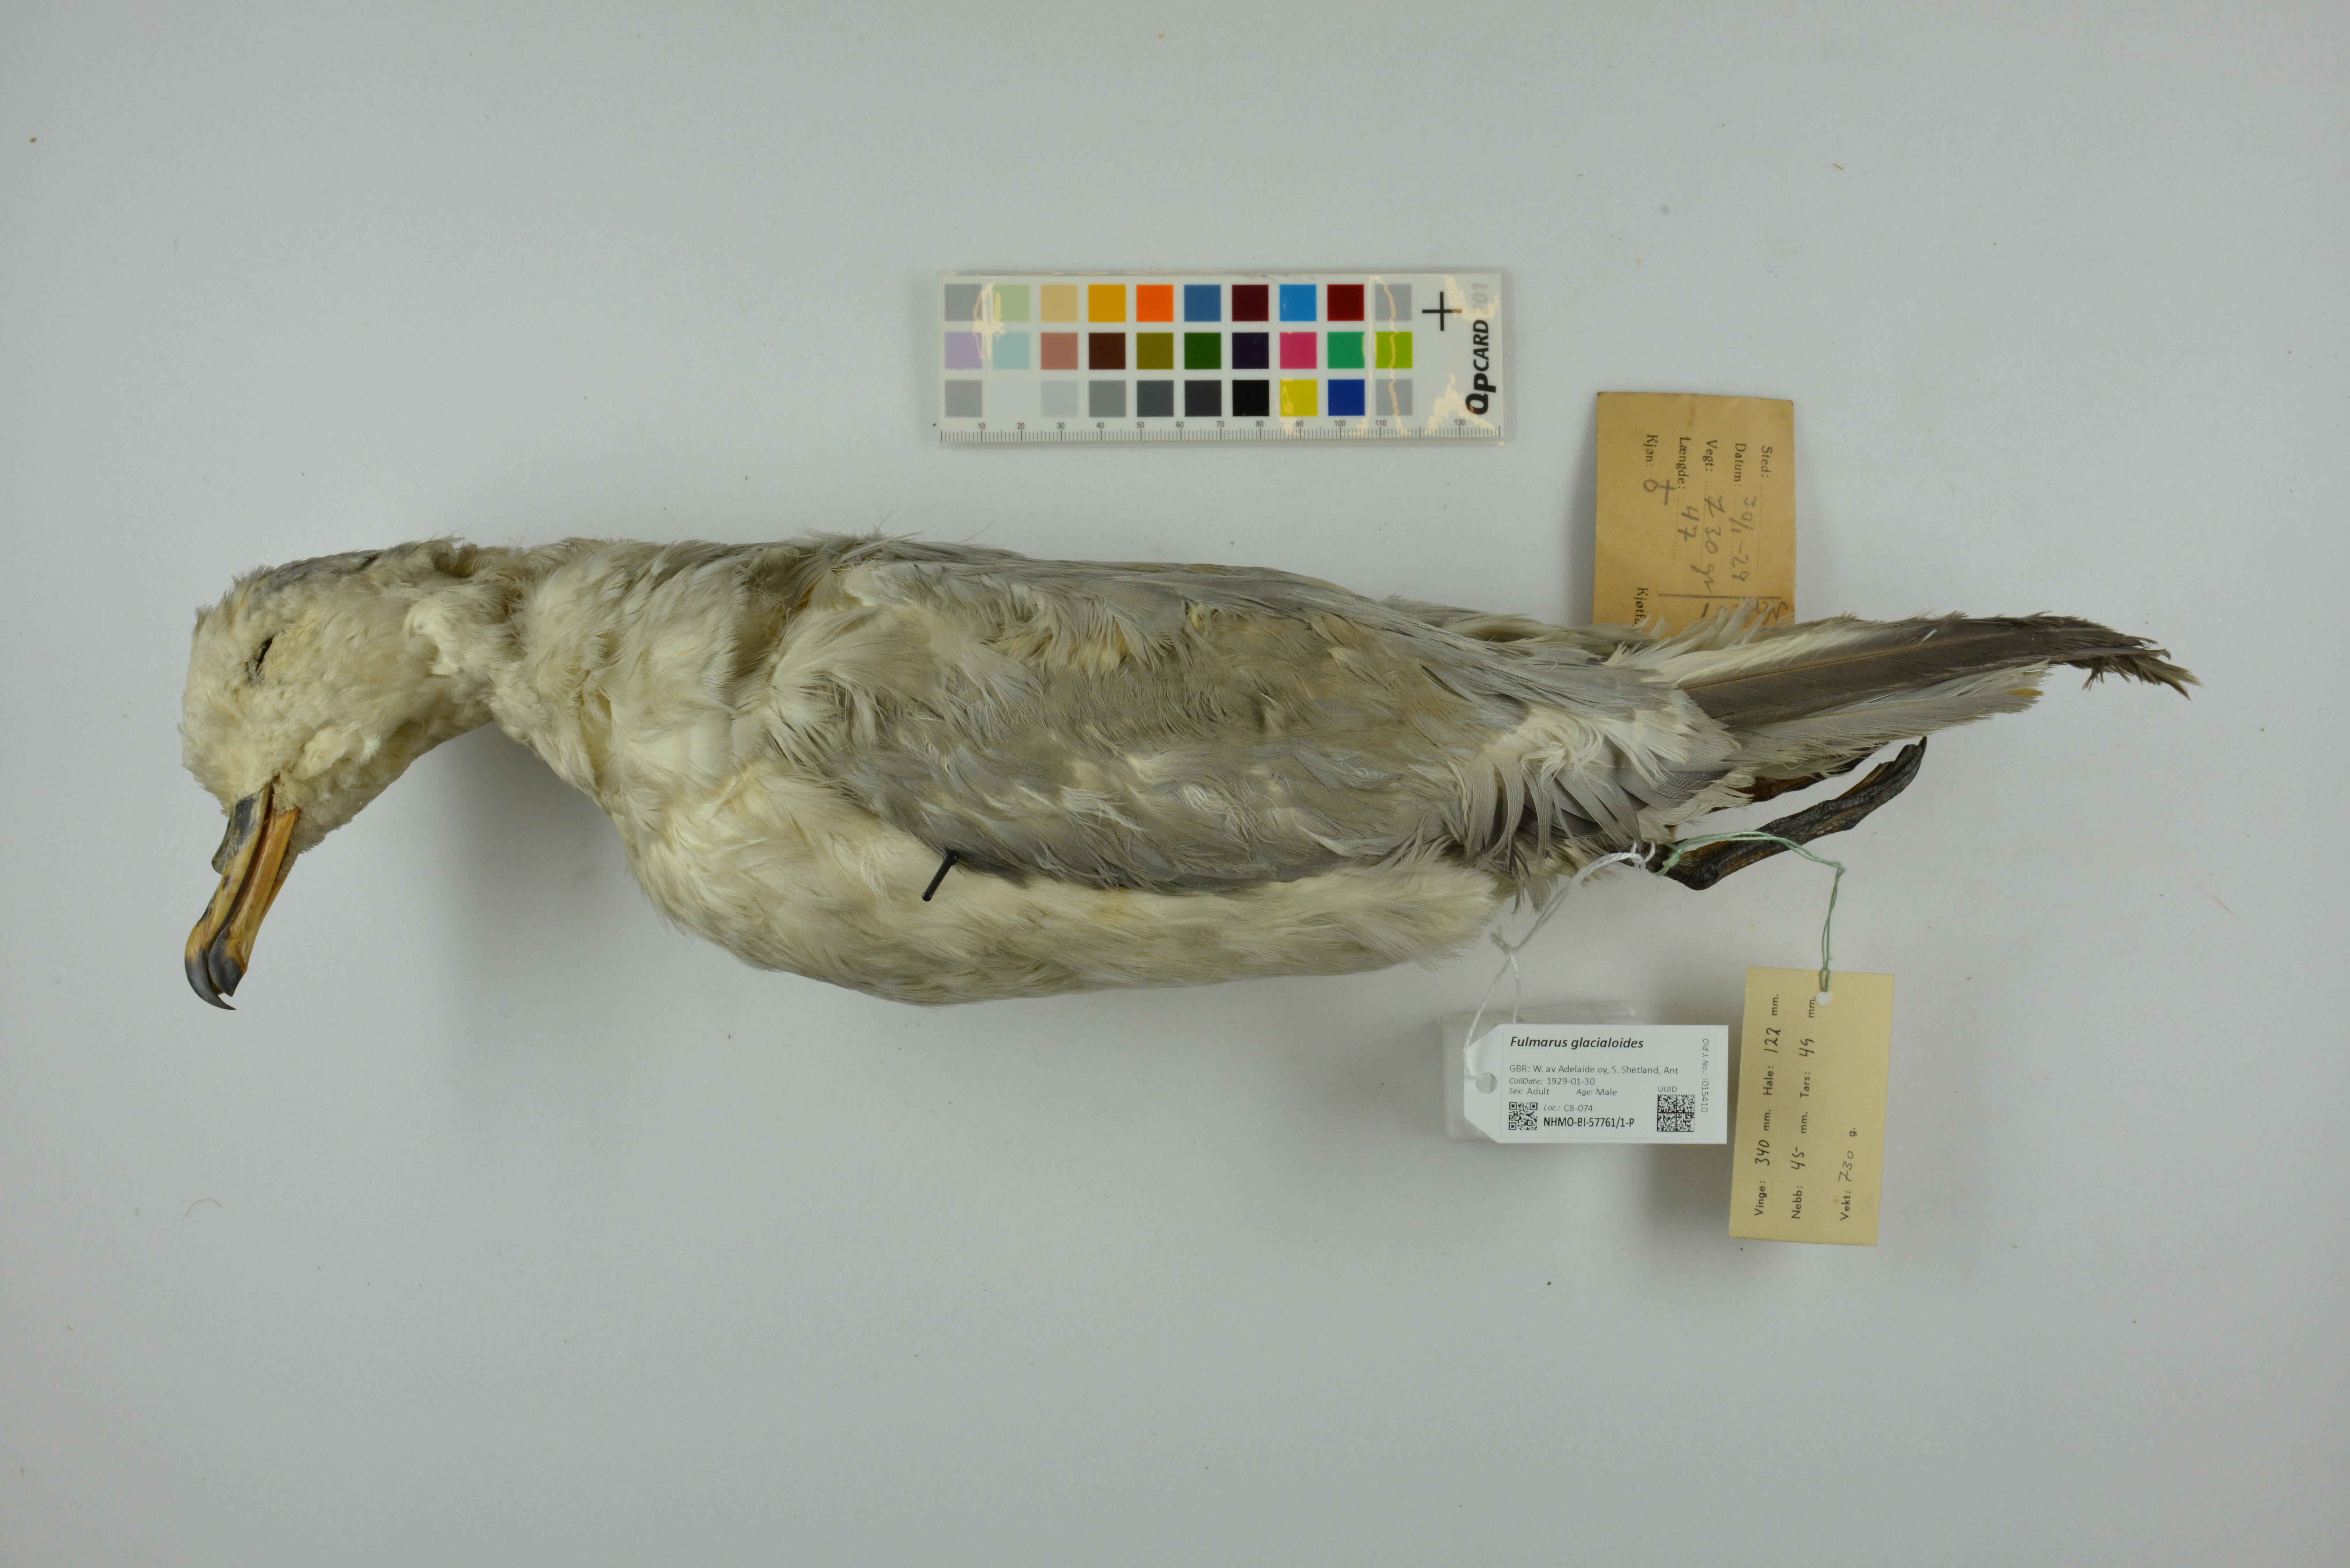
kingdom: Animalia
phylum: Chordata
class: Aves
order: Procellariiformes
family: Procellariidae
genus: Fulmarus
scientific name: Fulmarus glacialoides
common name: Southern fulmar
